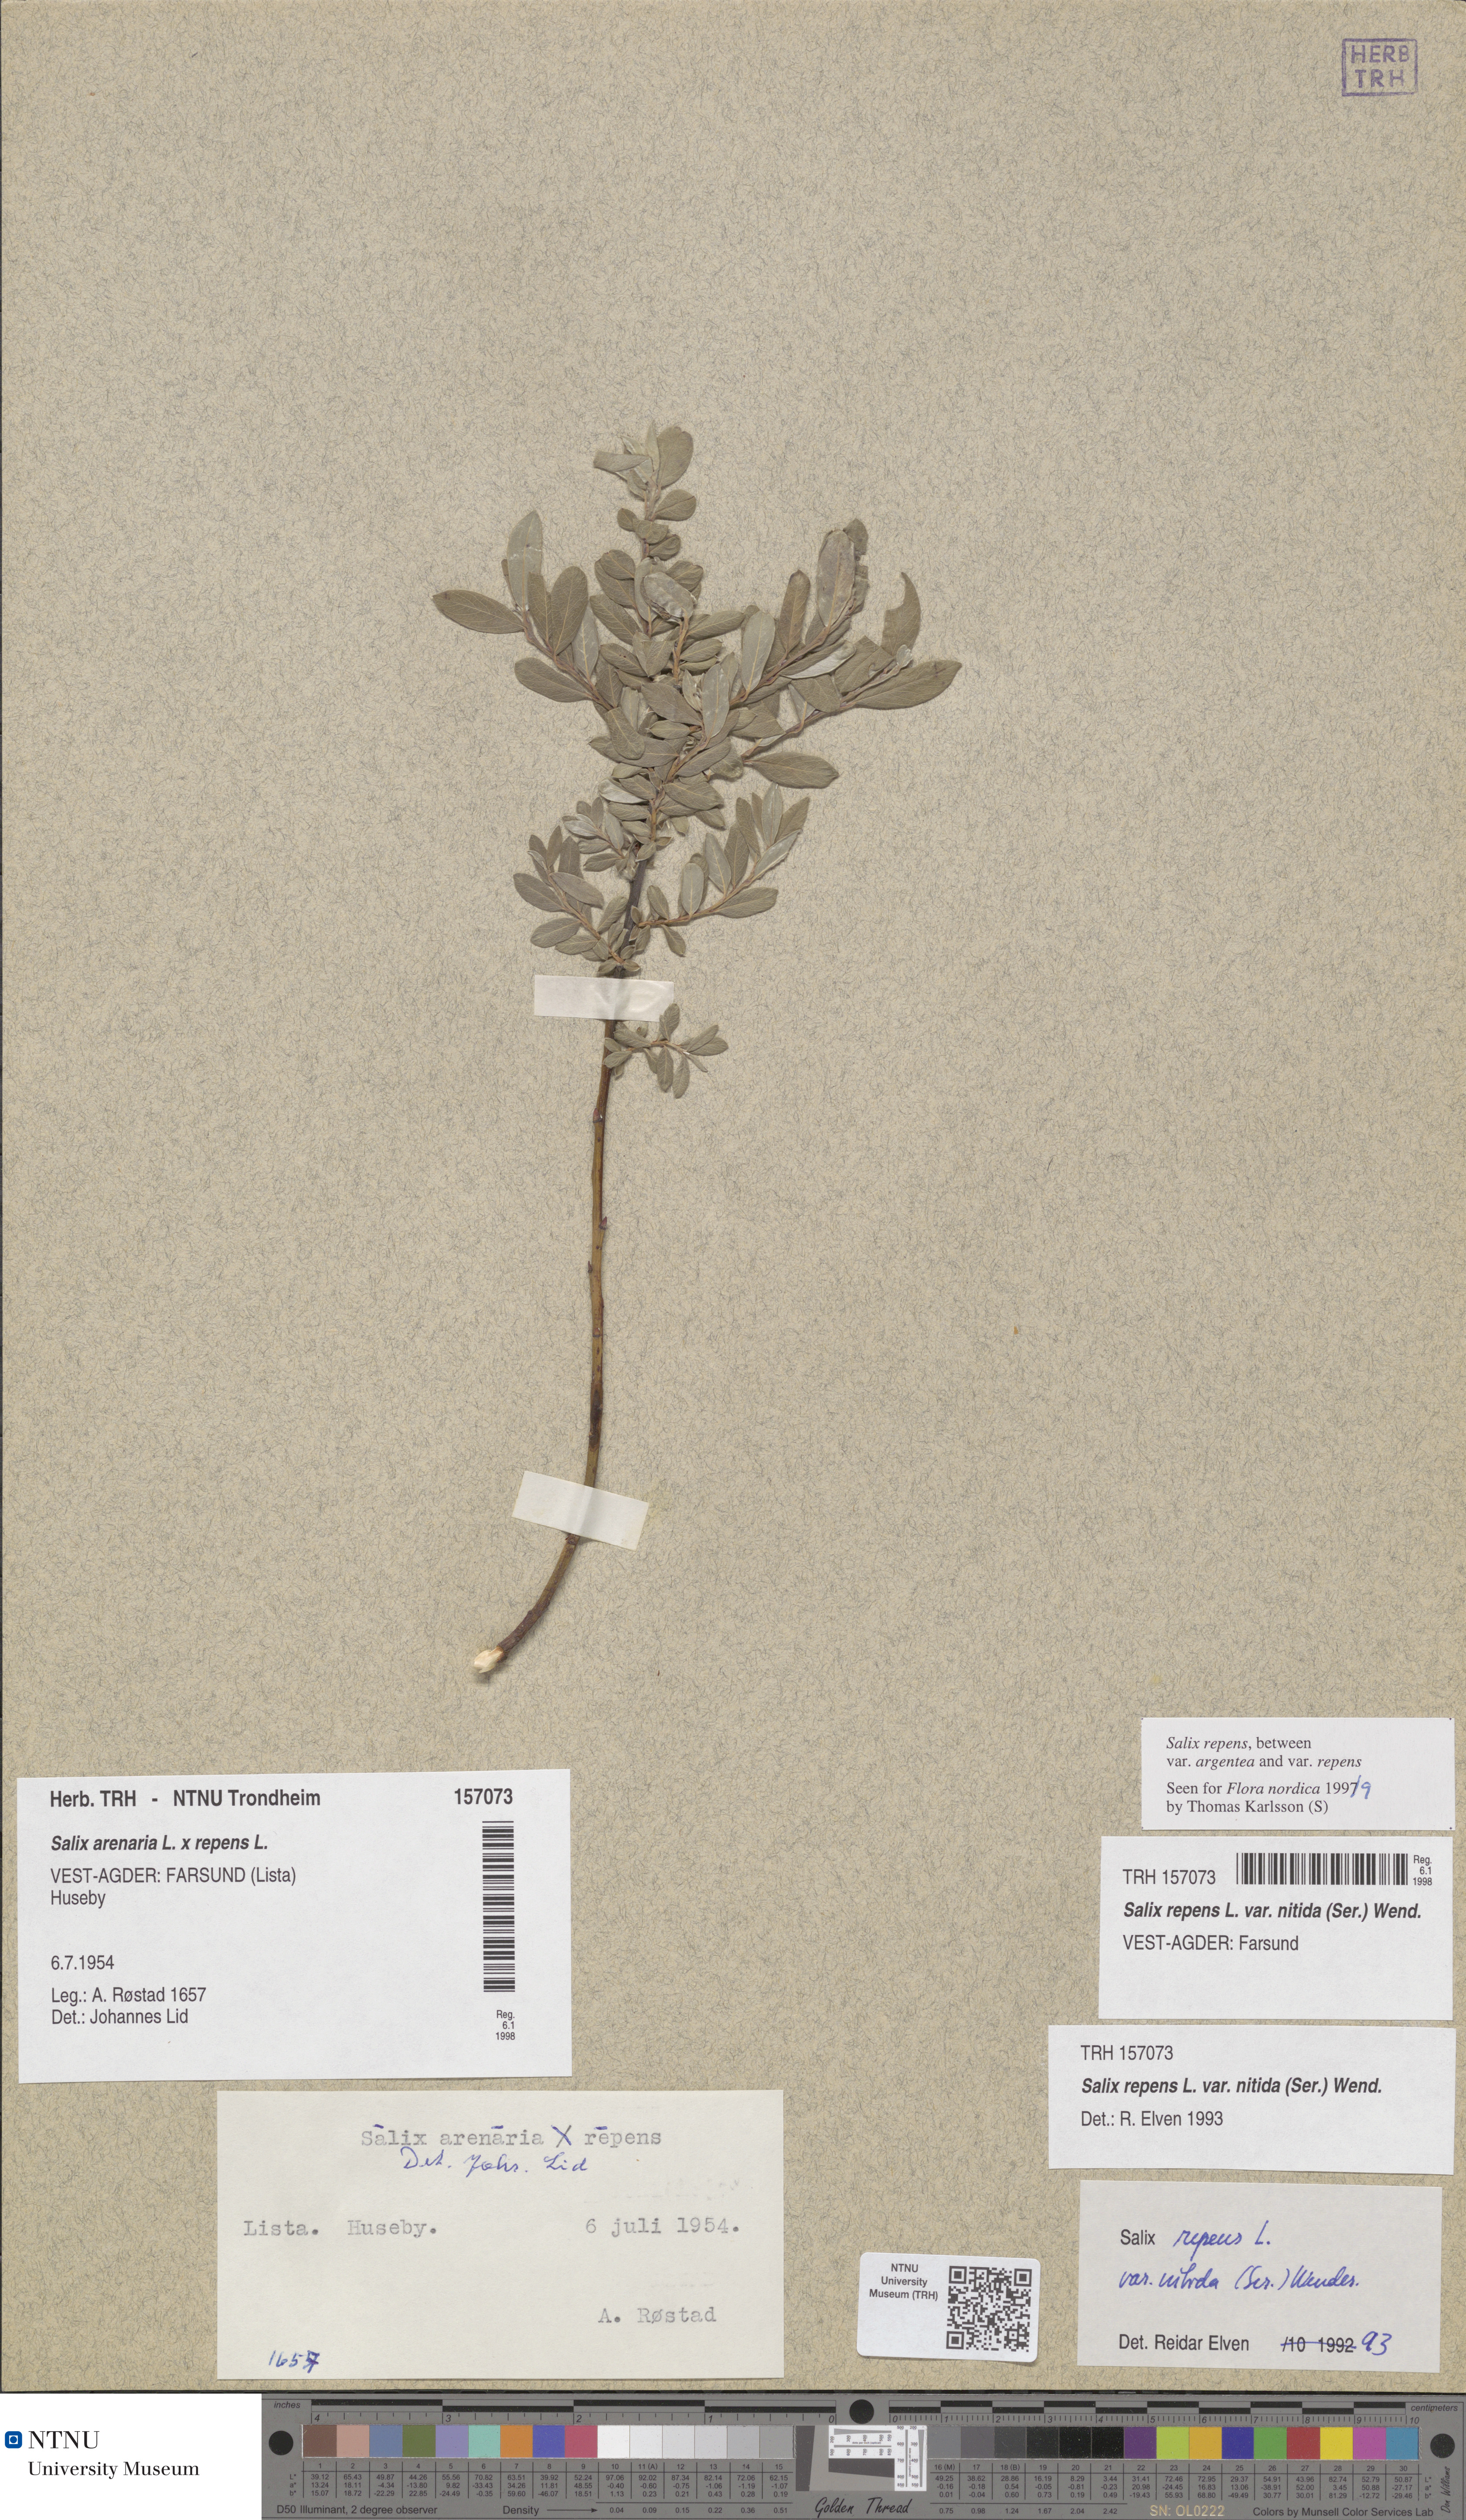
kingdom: Plantae
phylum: Tracheophyta
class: Magnoliopsida
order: Malpighiales
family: Salicaceae
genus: Salix
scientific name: Salix repens
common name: Creeping willow
